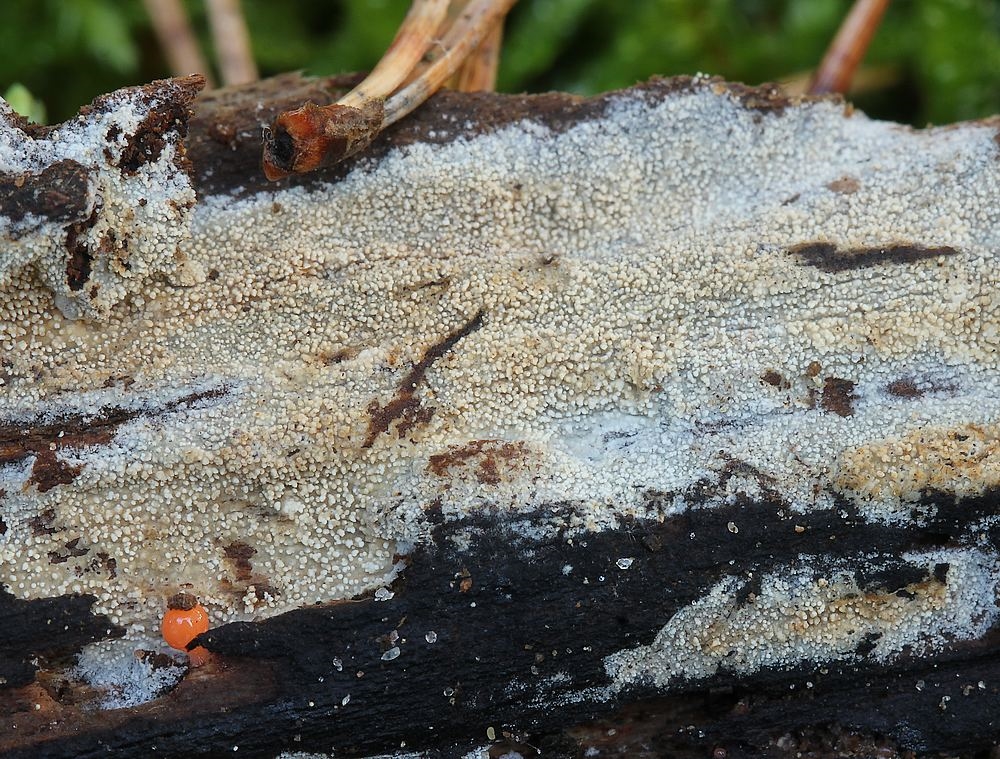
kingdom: Fungi
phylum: Basidiomycota
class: Agaricomycetes
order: Trechisporales
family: Hydnodontaceae
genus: Brevicellicium
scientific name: Brevicellicium olivascens
